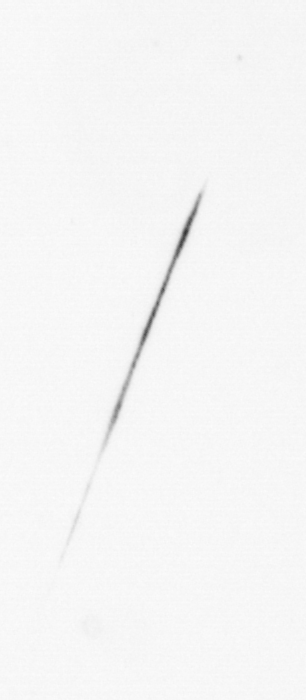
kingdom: Chromista
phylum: Ochrophyta
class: Bacillariophyceae
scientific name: Bacillariophyceae
